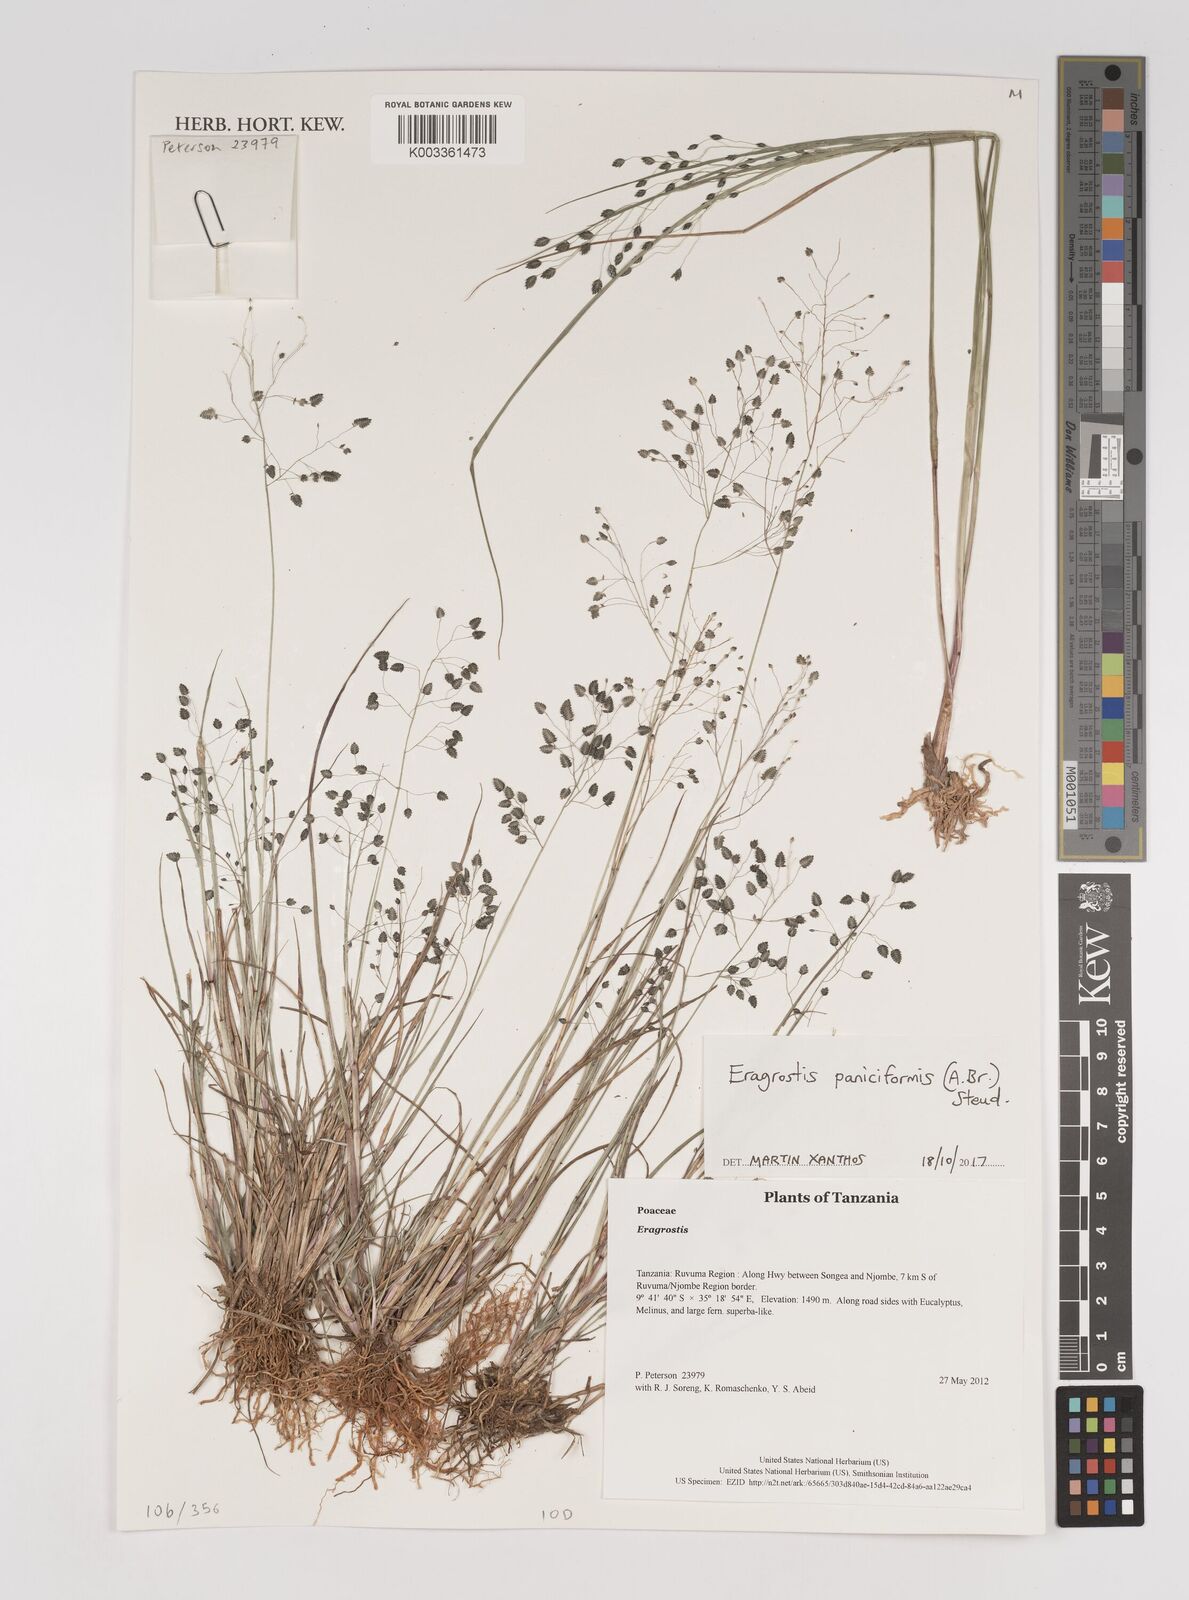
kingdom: Plantae
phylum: Tracheophyta
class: Liliopsida
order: Poales
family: Poaceae
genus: Eragrostis
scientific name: Eragrostis paniciformis
